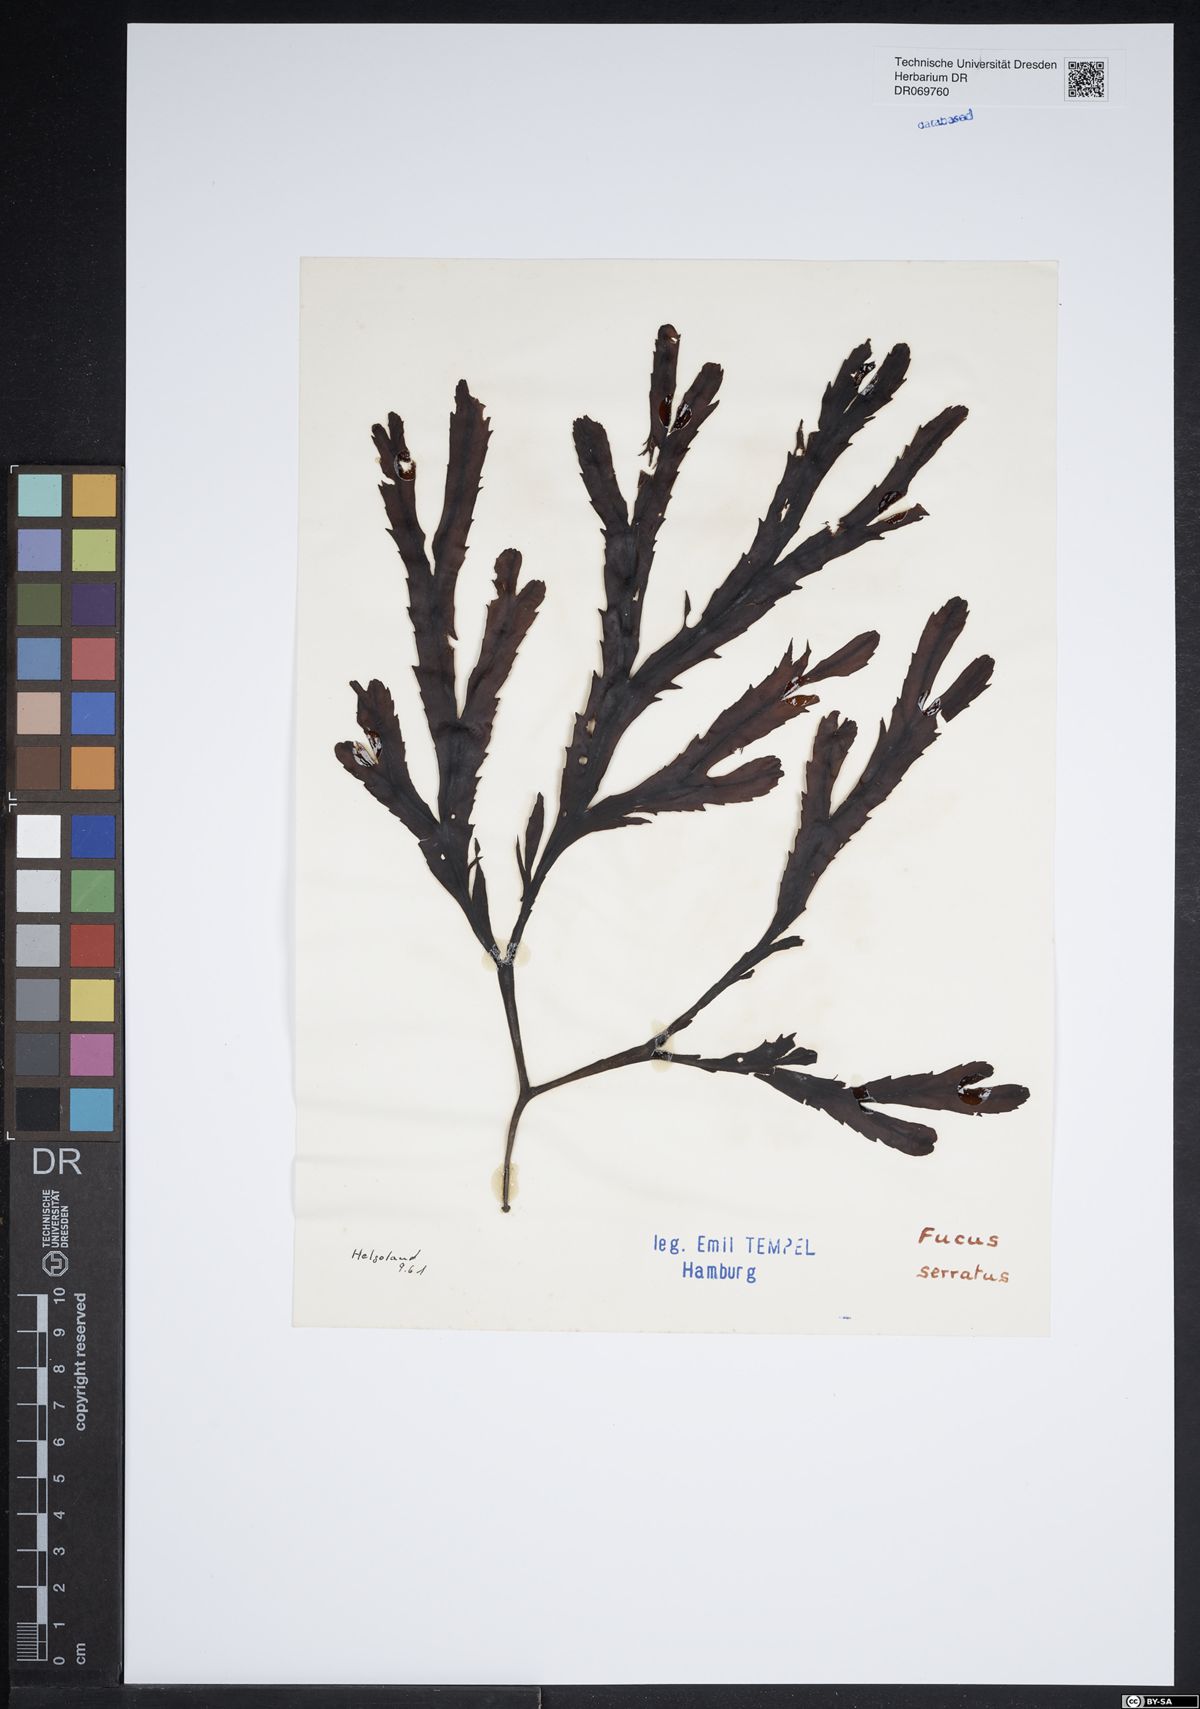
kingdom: Chromista
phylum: Ochrophyta
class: Phaeophyceae
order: Fucales
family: Fucaceae
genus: Fucus
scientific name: Fucus serratus
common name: Toothed wrack
